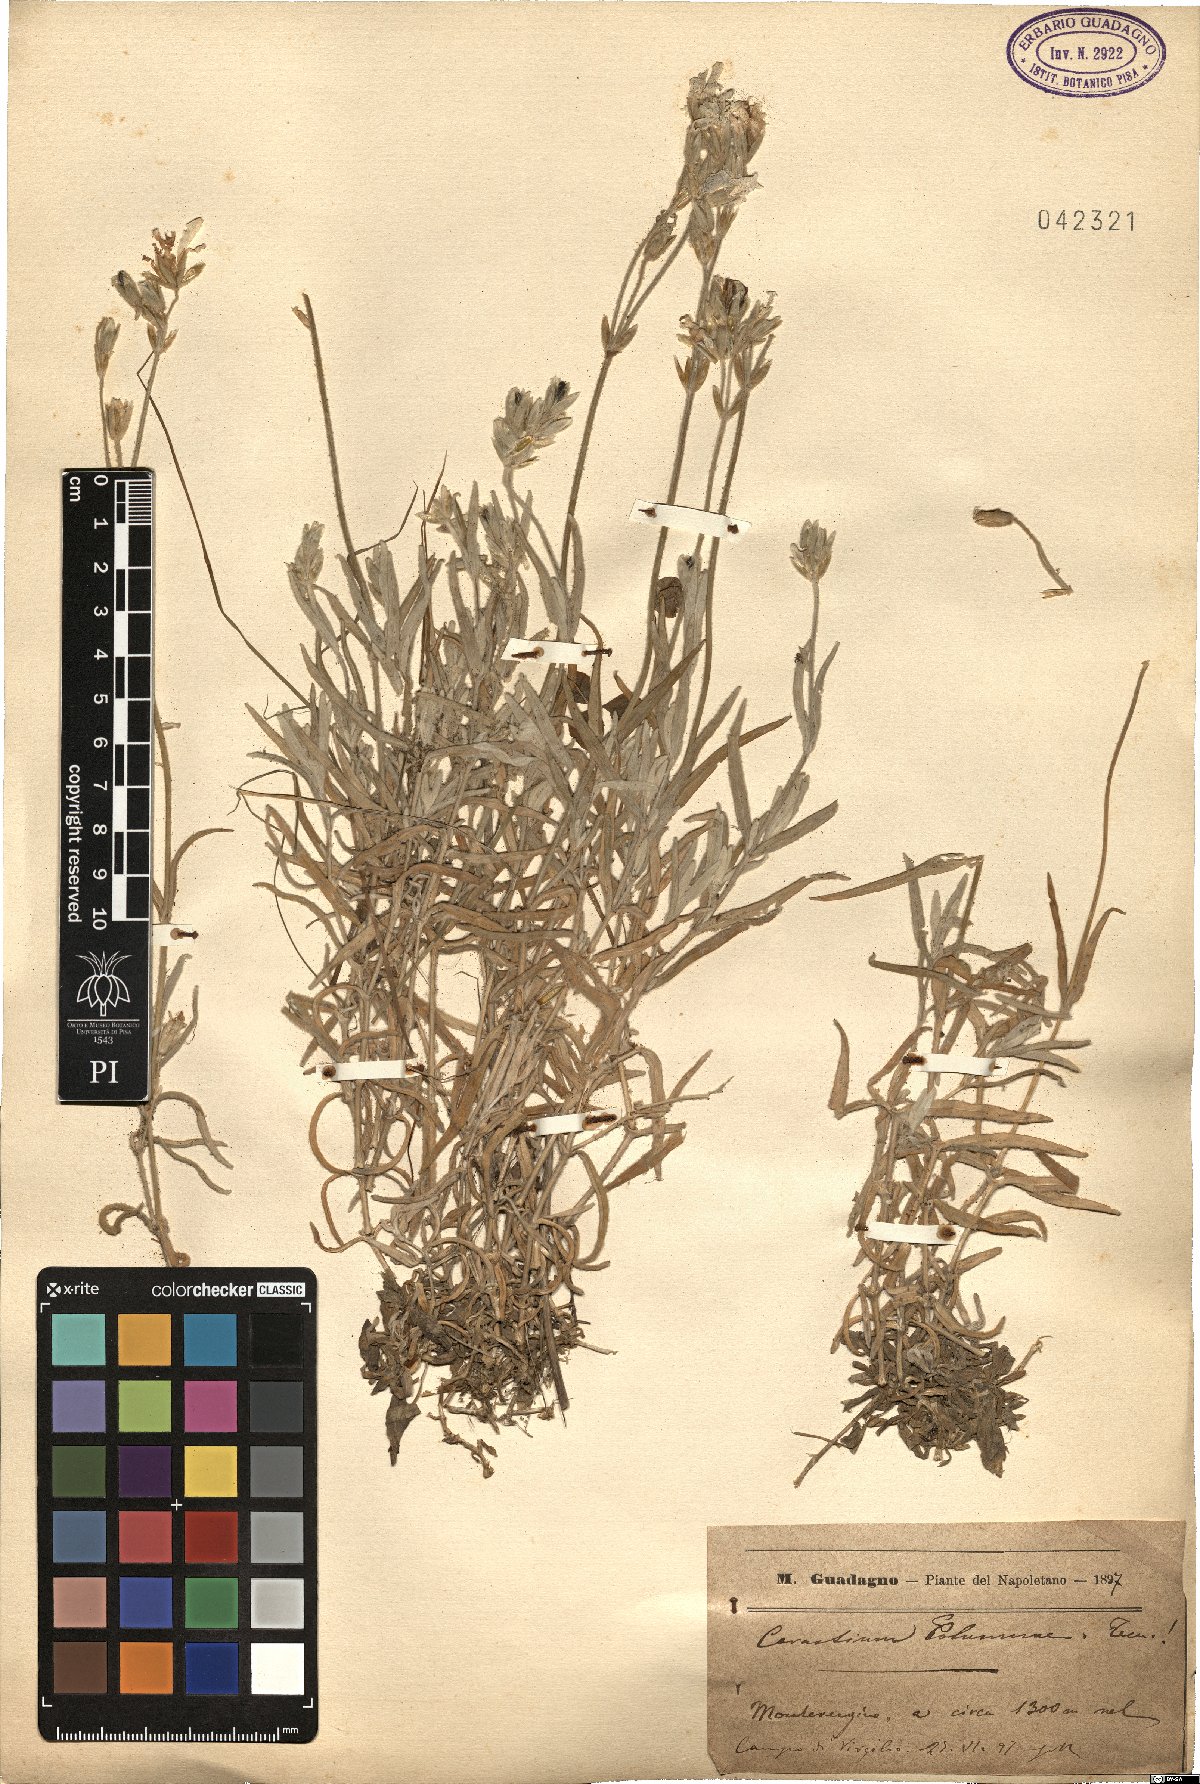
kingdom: Plantae
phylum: Tracheophyta
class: Magnoliopsida
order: Caryophyllales
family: Caryophyllaceae
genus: Cerastium
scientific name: Cerastium tomentosum
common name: Snow-in-summer
